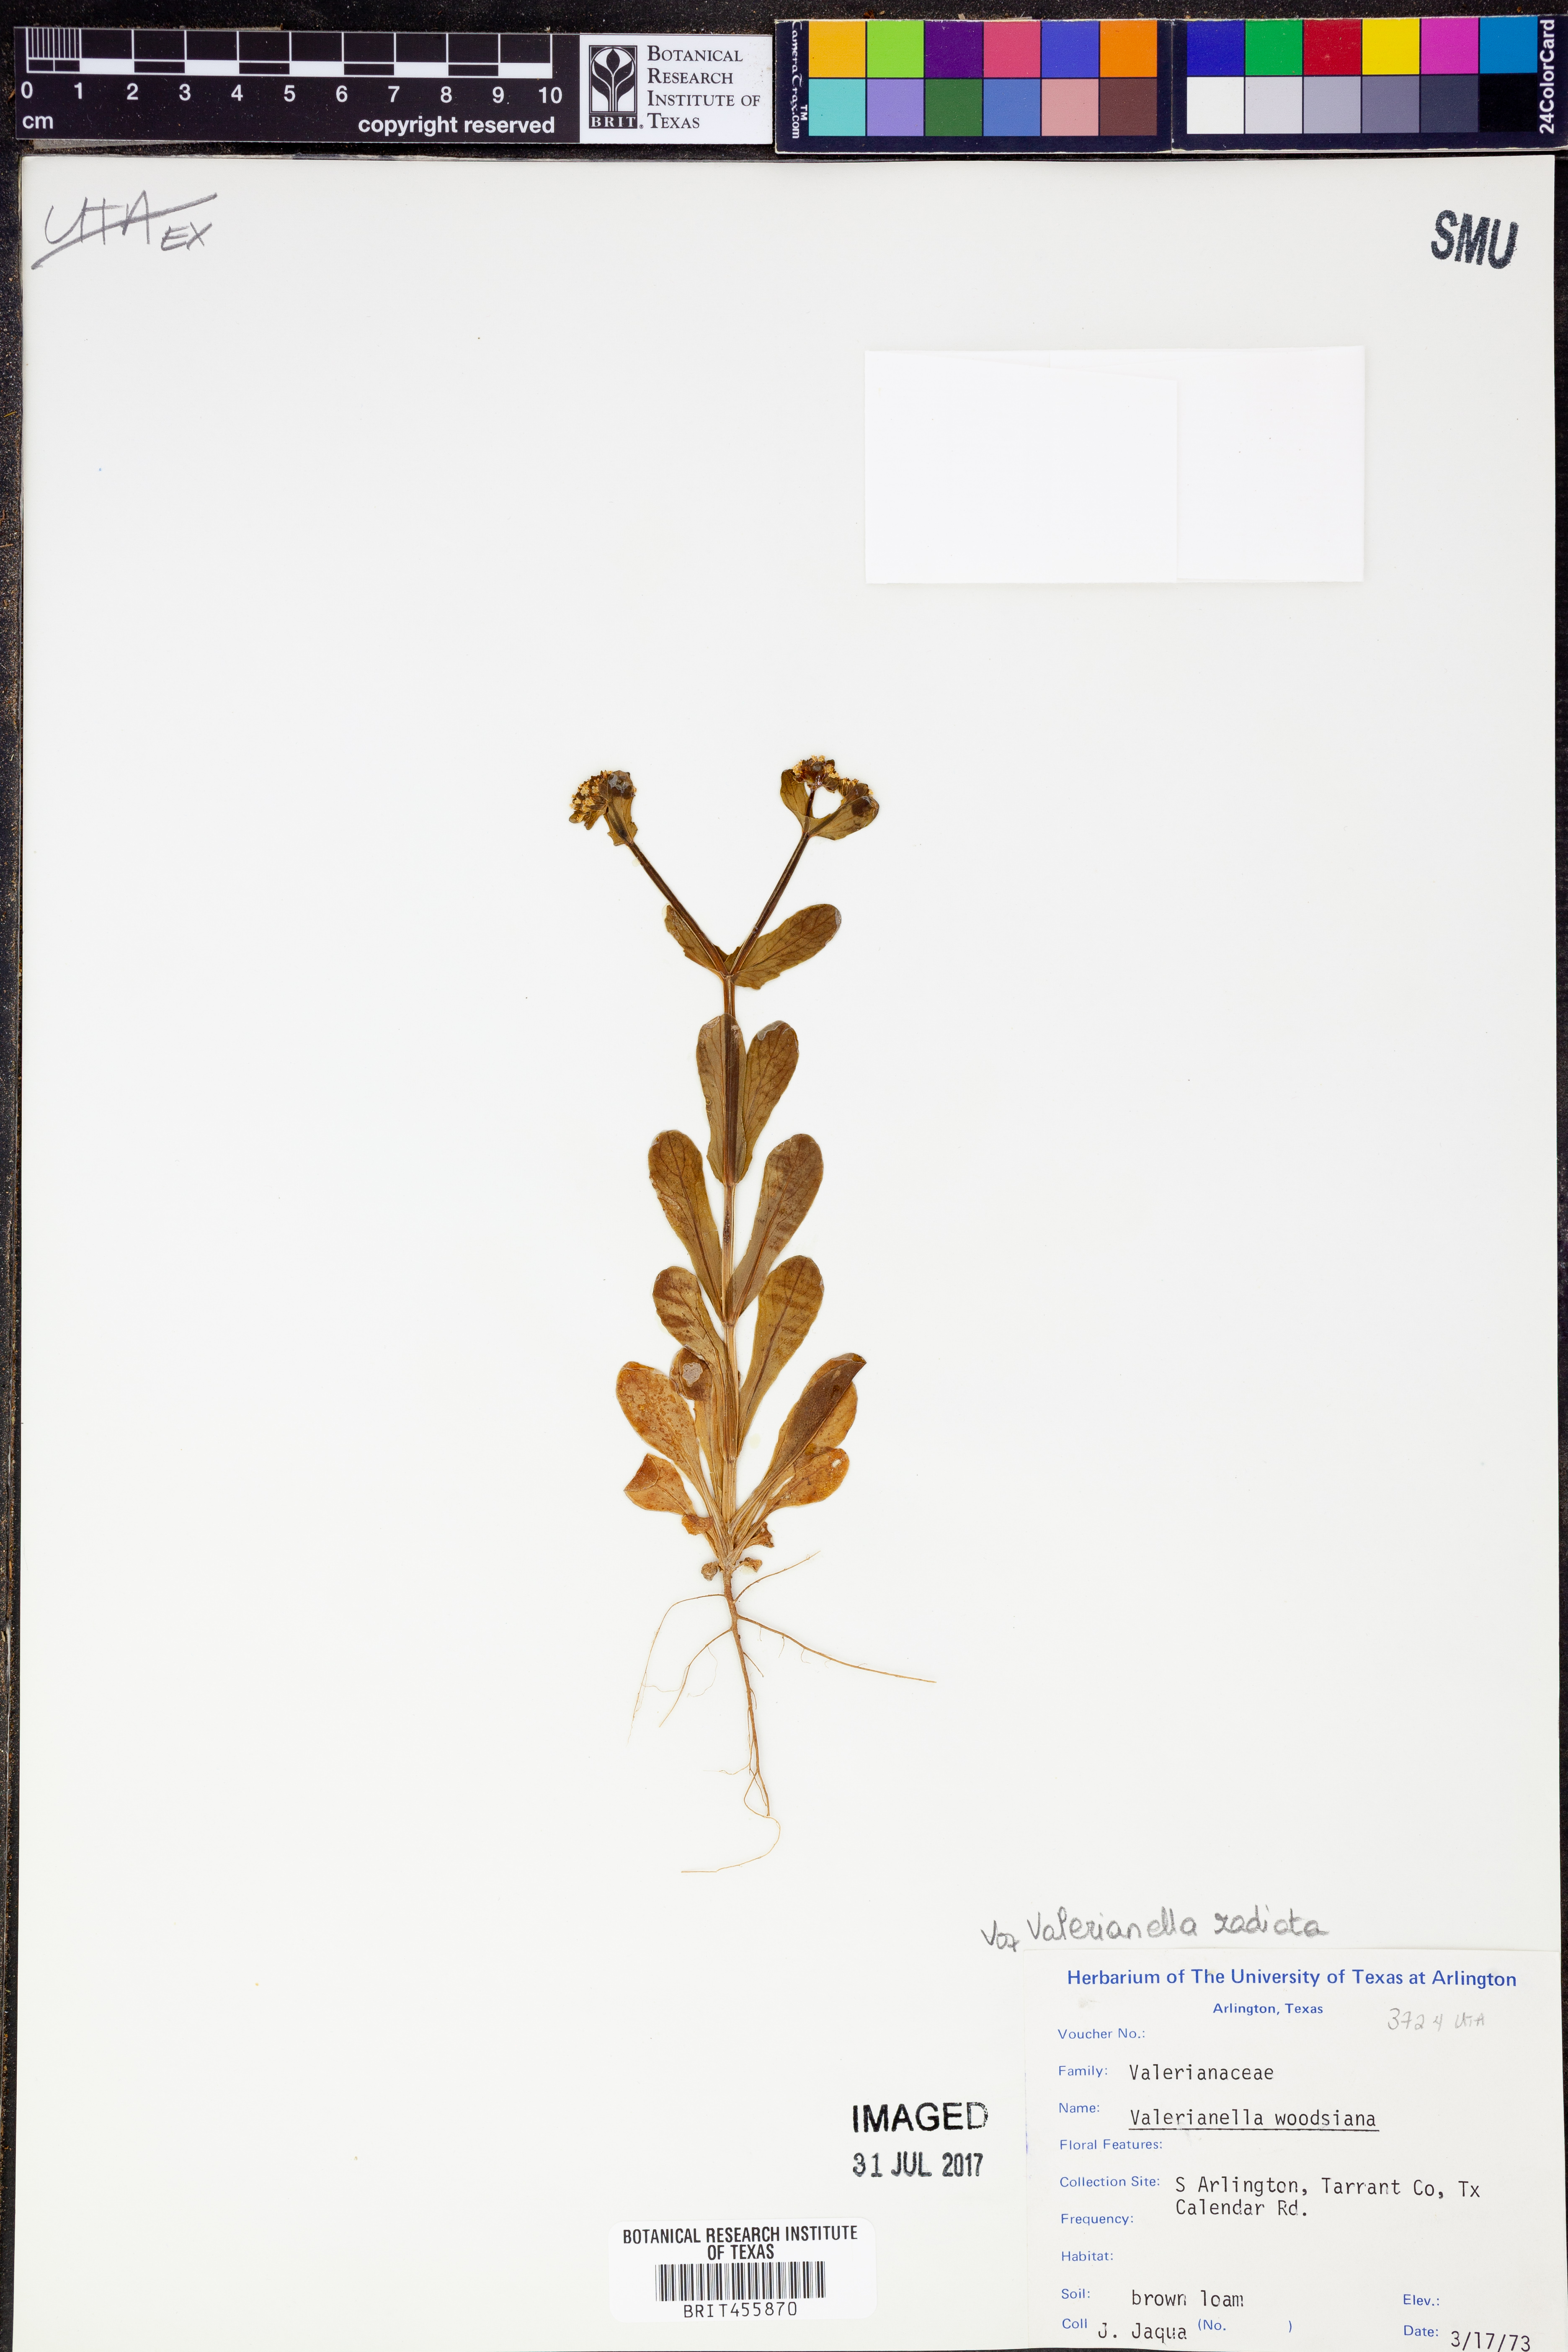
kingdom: Plantae
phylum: Tracheophyta
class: Magnoliopsida
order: Dipsacales
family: Caprifoliaceae
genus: Valerianella
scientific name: Valerianella radiata
